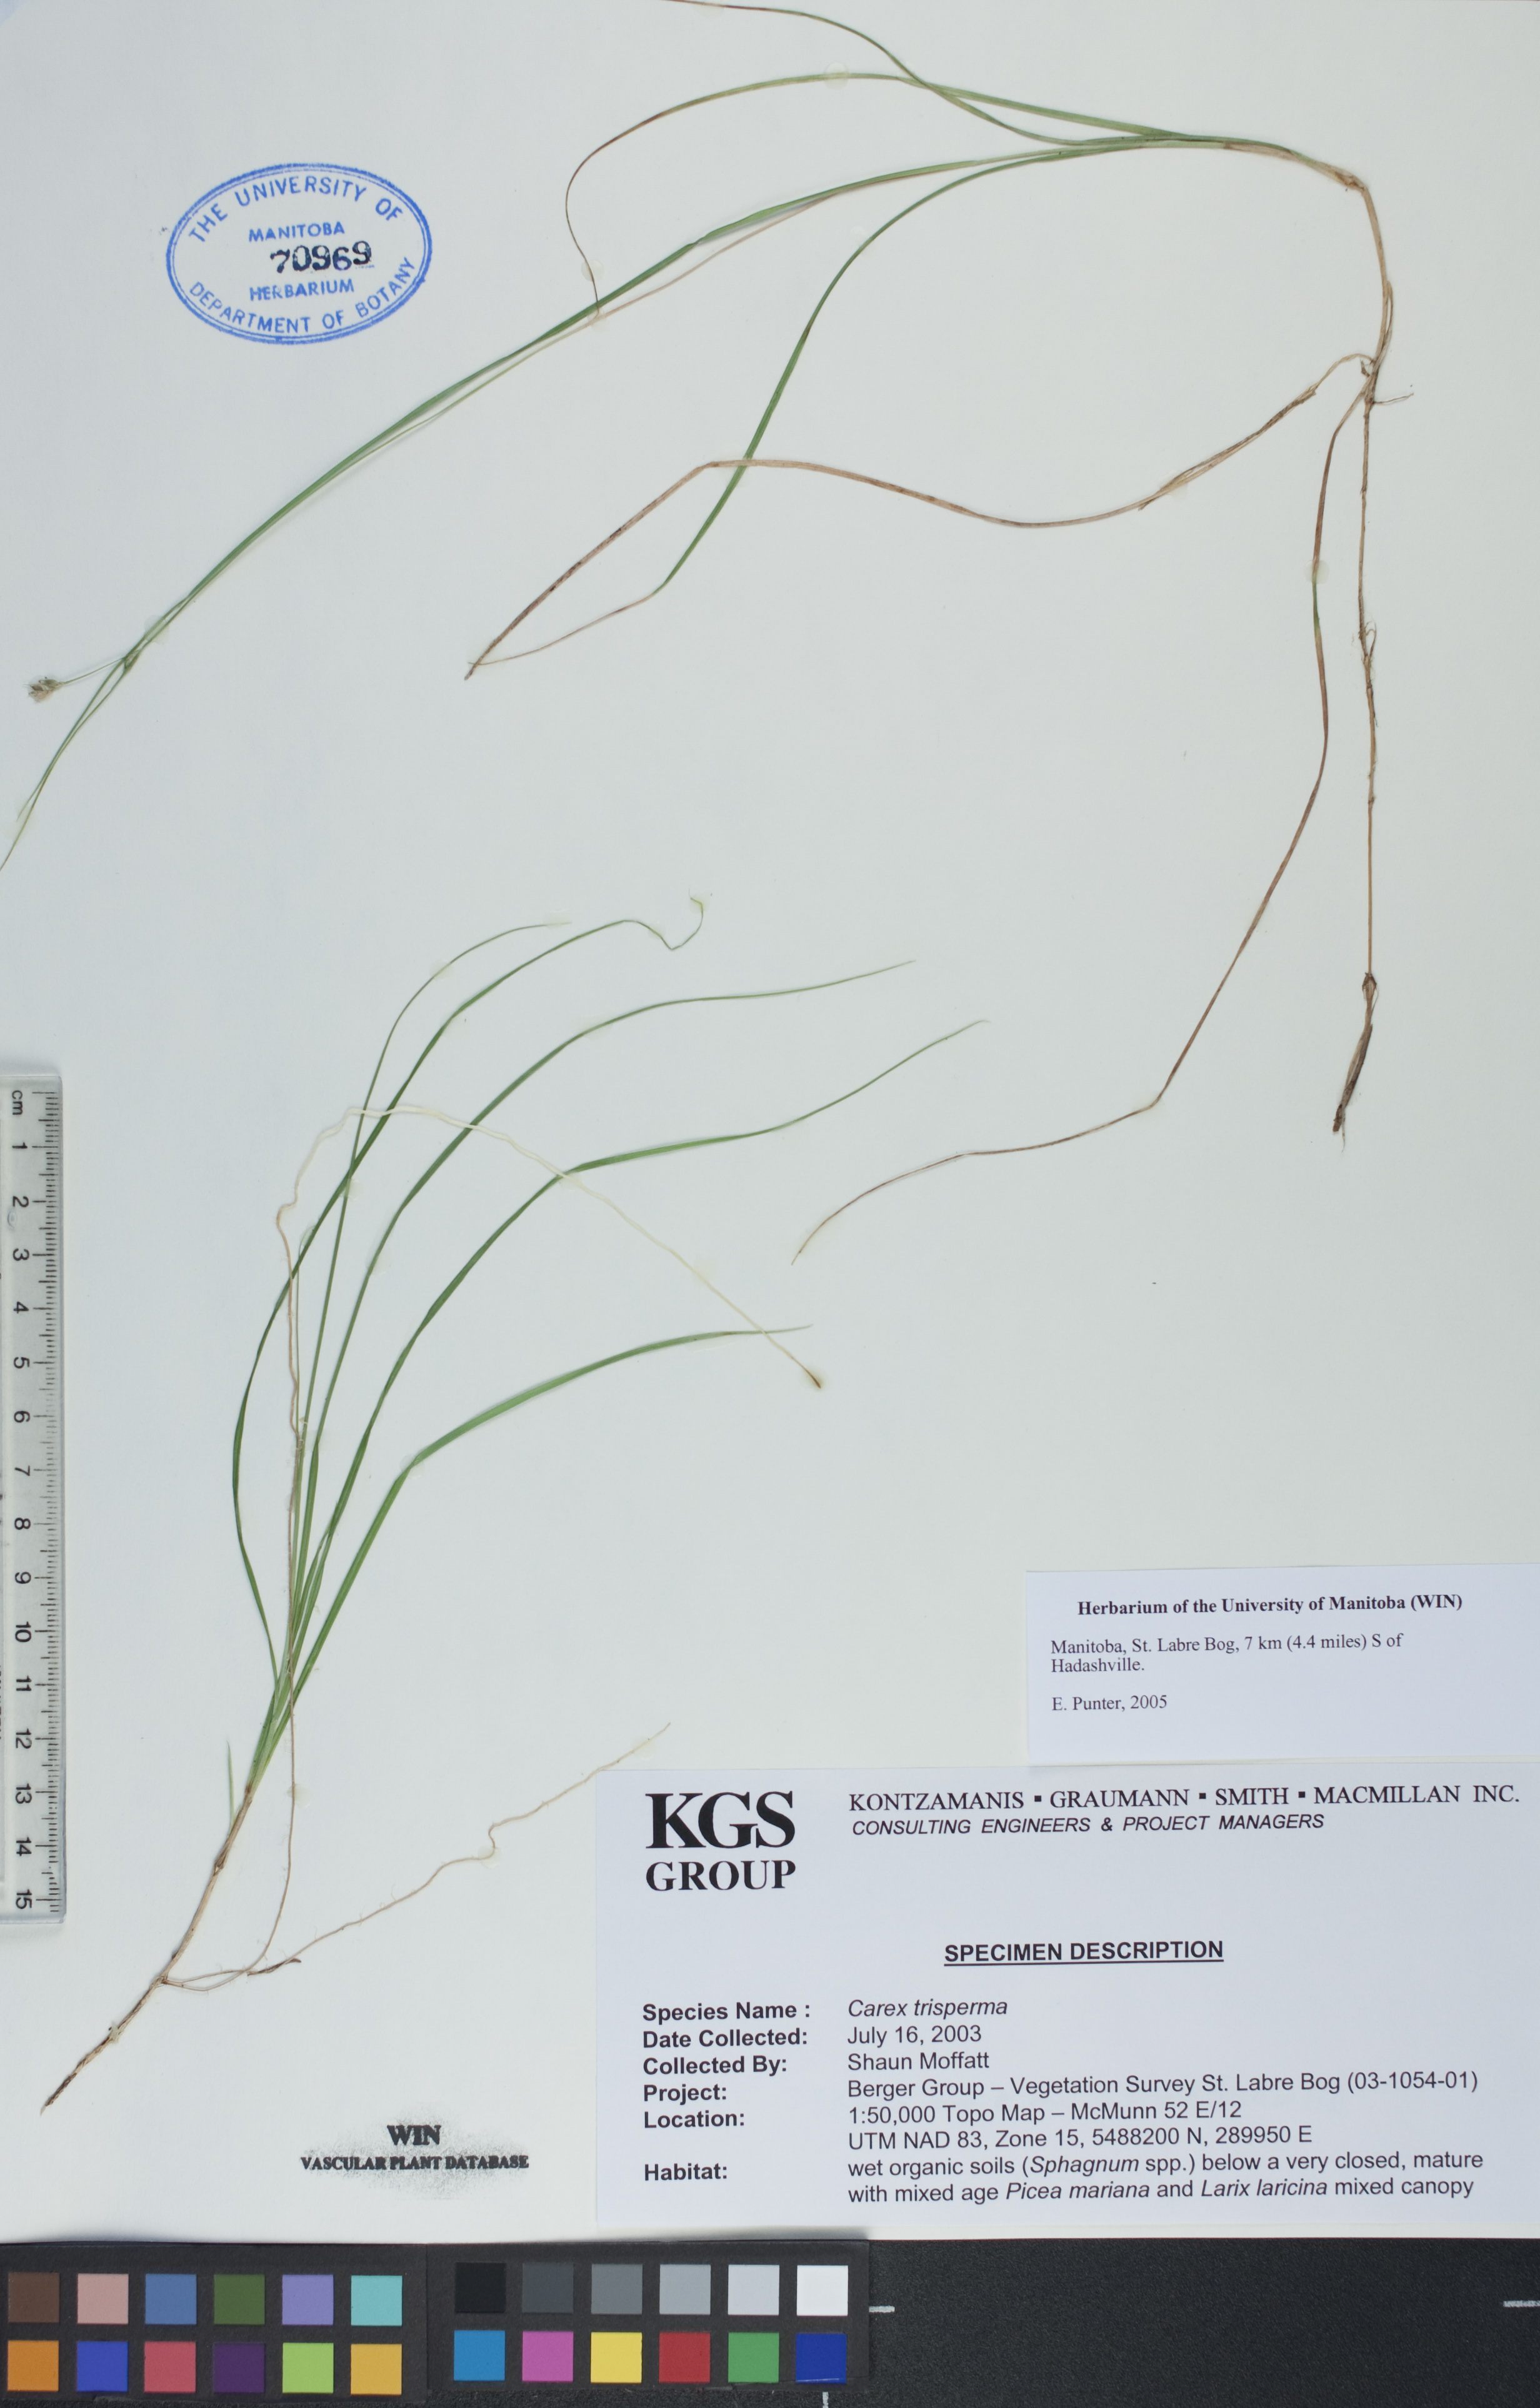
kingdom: Plantae
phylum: Tracheophyta
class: Liliopsida
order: Poales
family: Cyperaceae
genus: Carex
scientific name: Carex trisperma
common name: Three-seeded sedge
